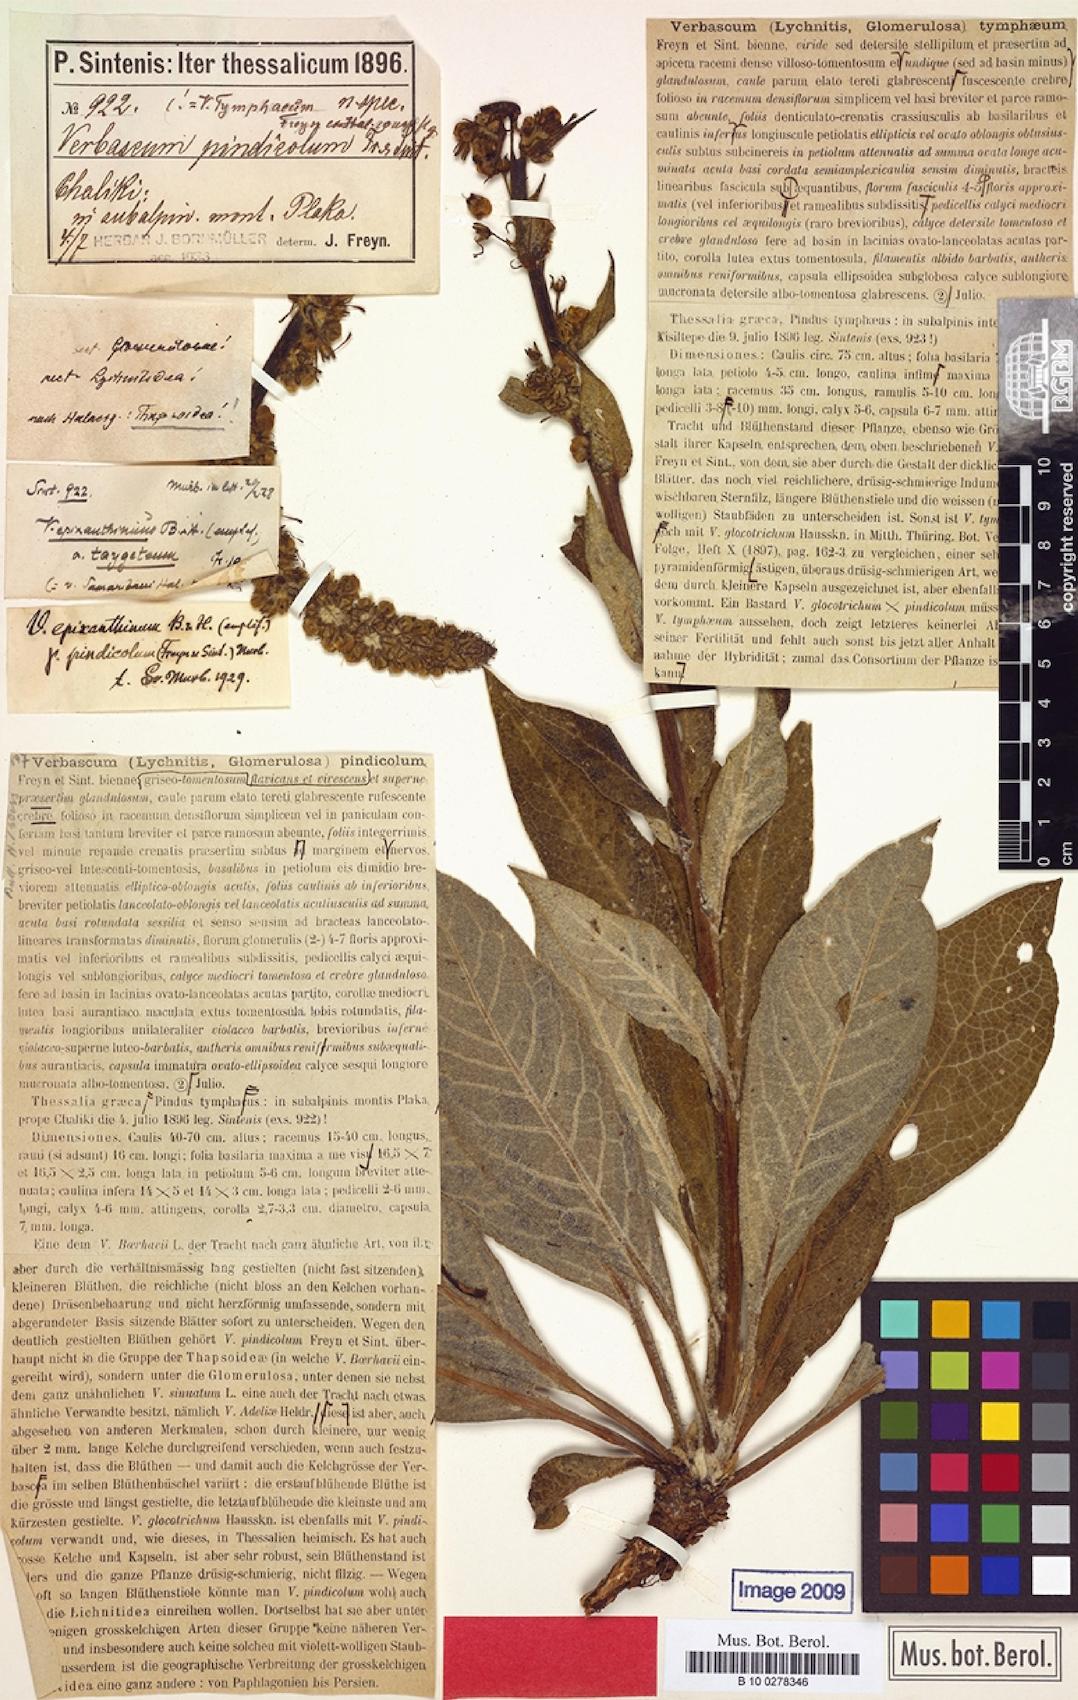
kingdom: Plantae
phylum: Tracheophyta
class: Magnoliopsida
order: Lamiales
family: Scrophulariaceae
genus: Verbascum
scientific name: Verbascum epixanthinum
